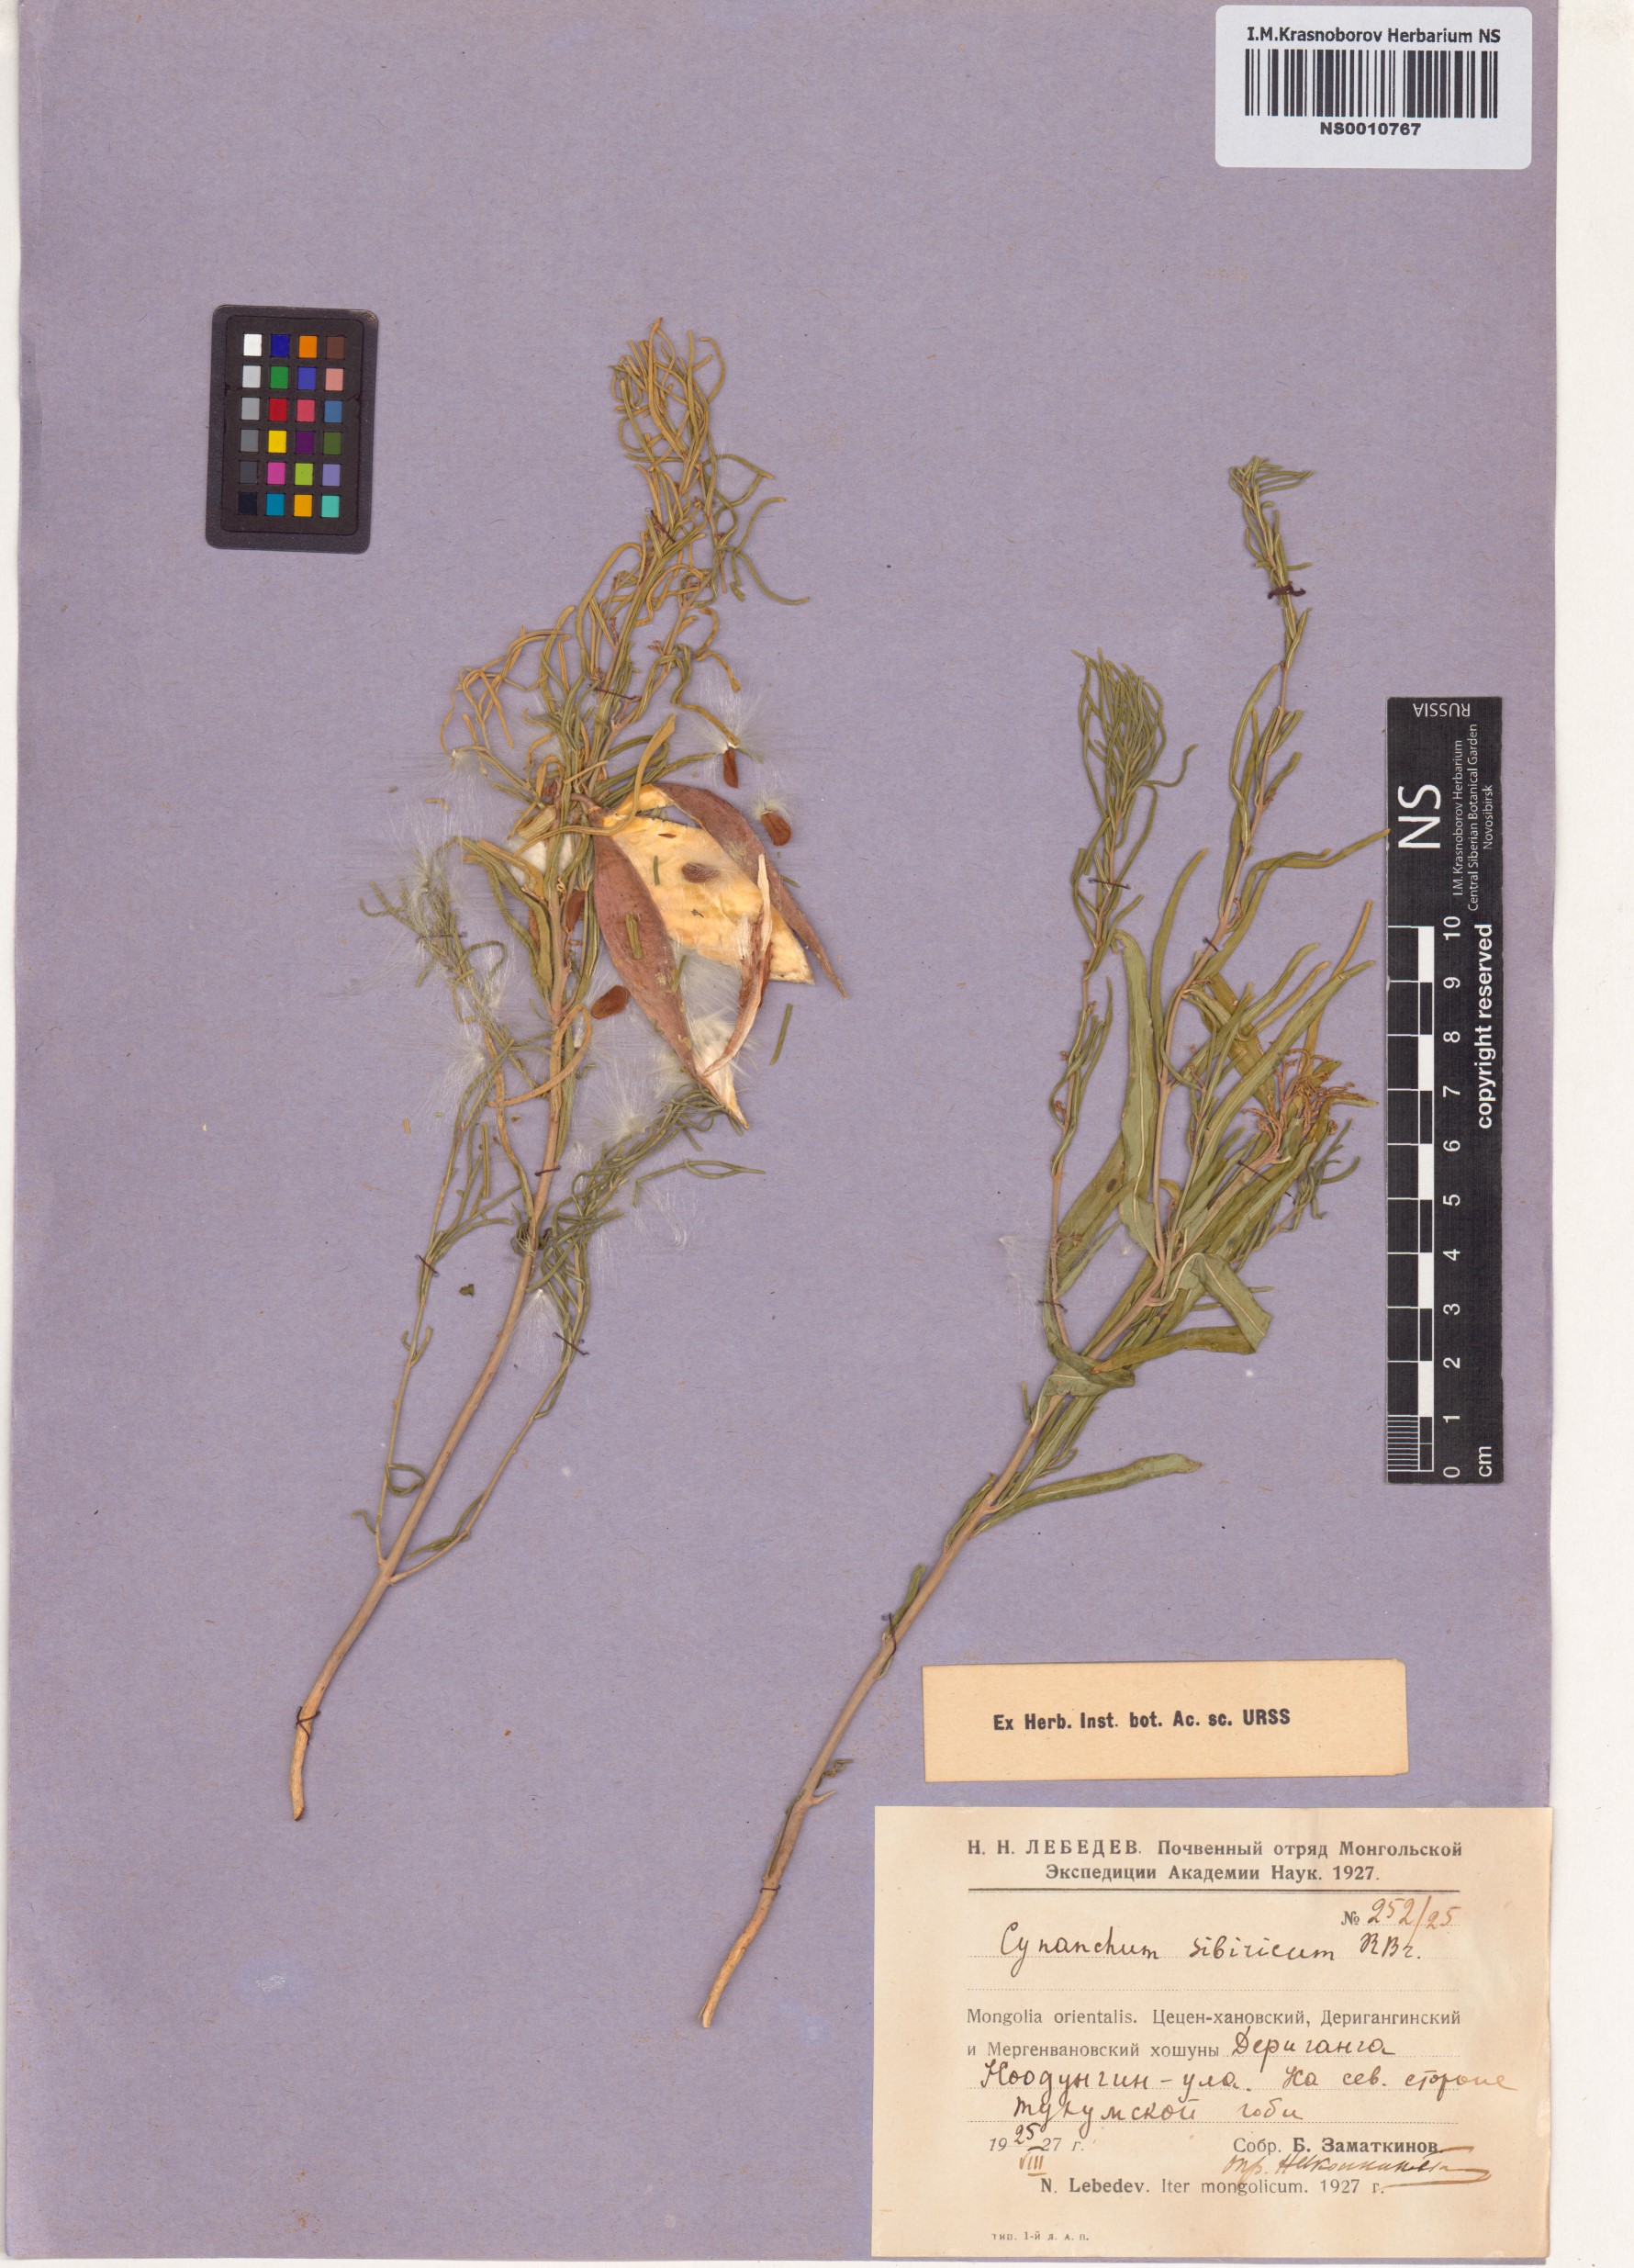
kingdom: Plantae
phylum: Tracheophyta
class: Magnoliopsida
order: Gentianales
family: Apocynaceae
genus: Cynanchum
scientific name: Cynanchum thesioides
